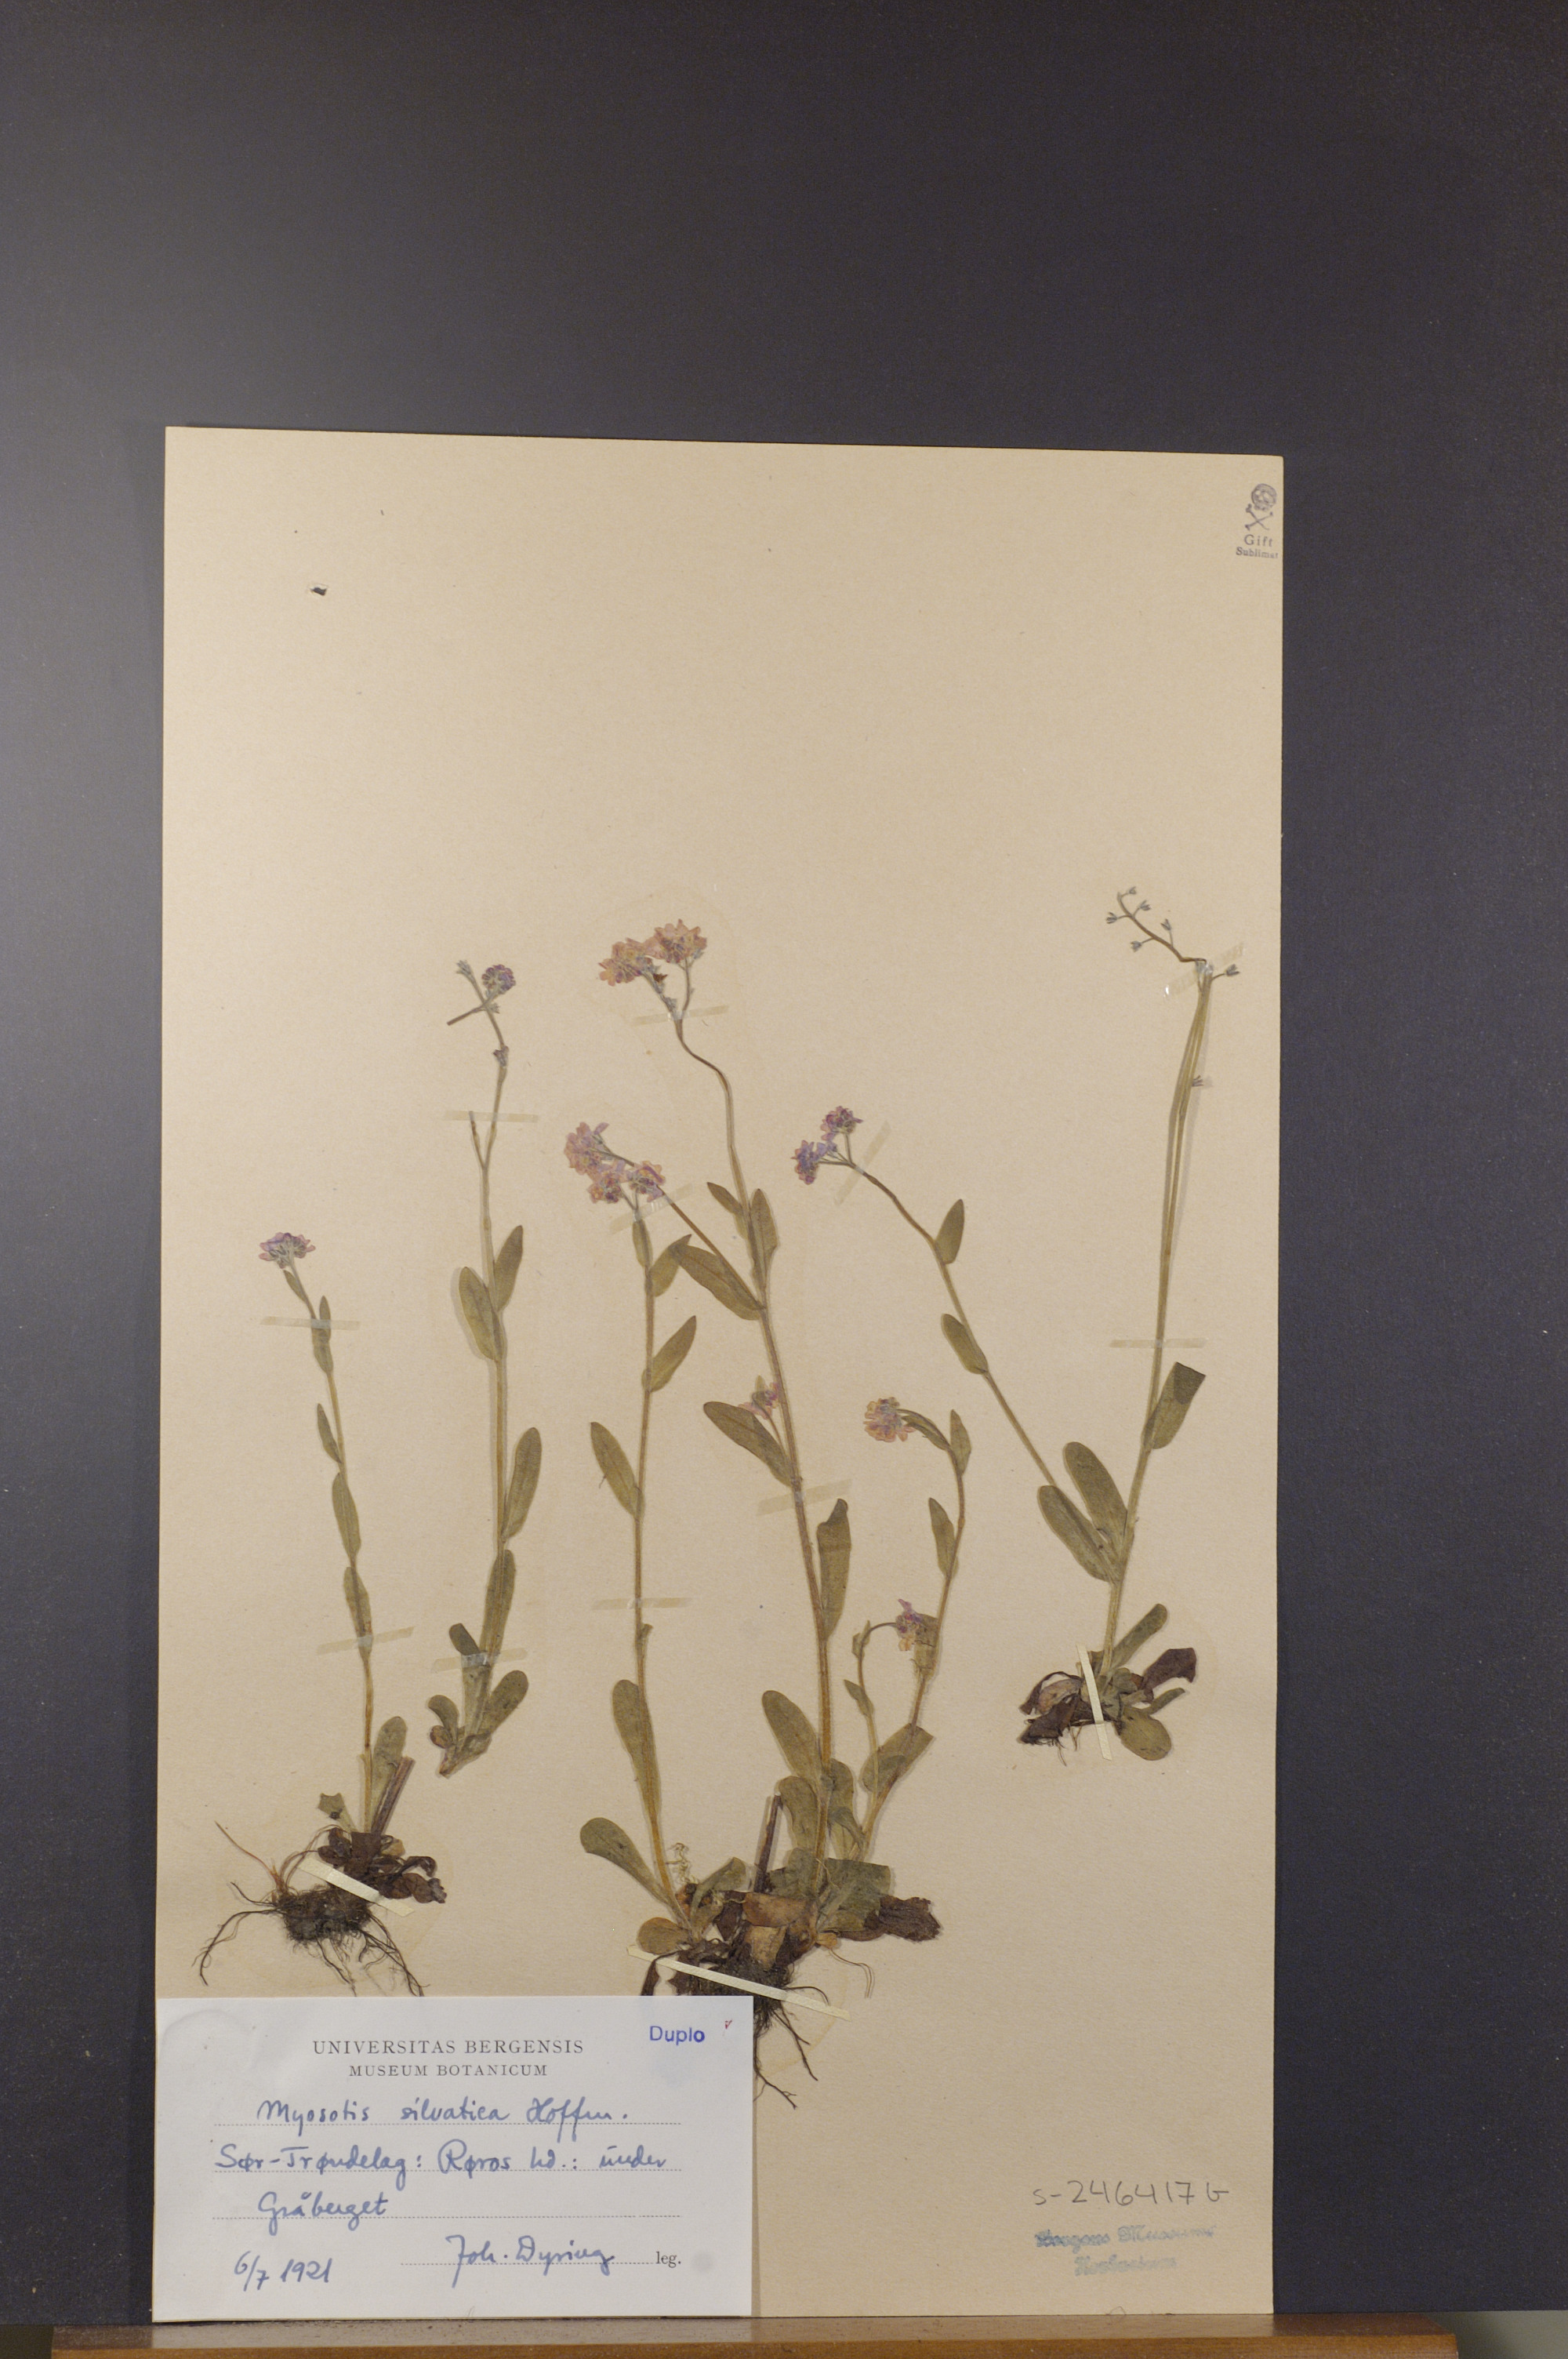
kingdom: Plantae
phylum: Tracheophyta
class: Magnoliopsida
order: Boraginales
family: Boraginaceae
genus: Myosotis
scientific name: Myosotis decumbens
